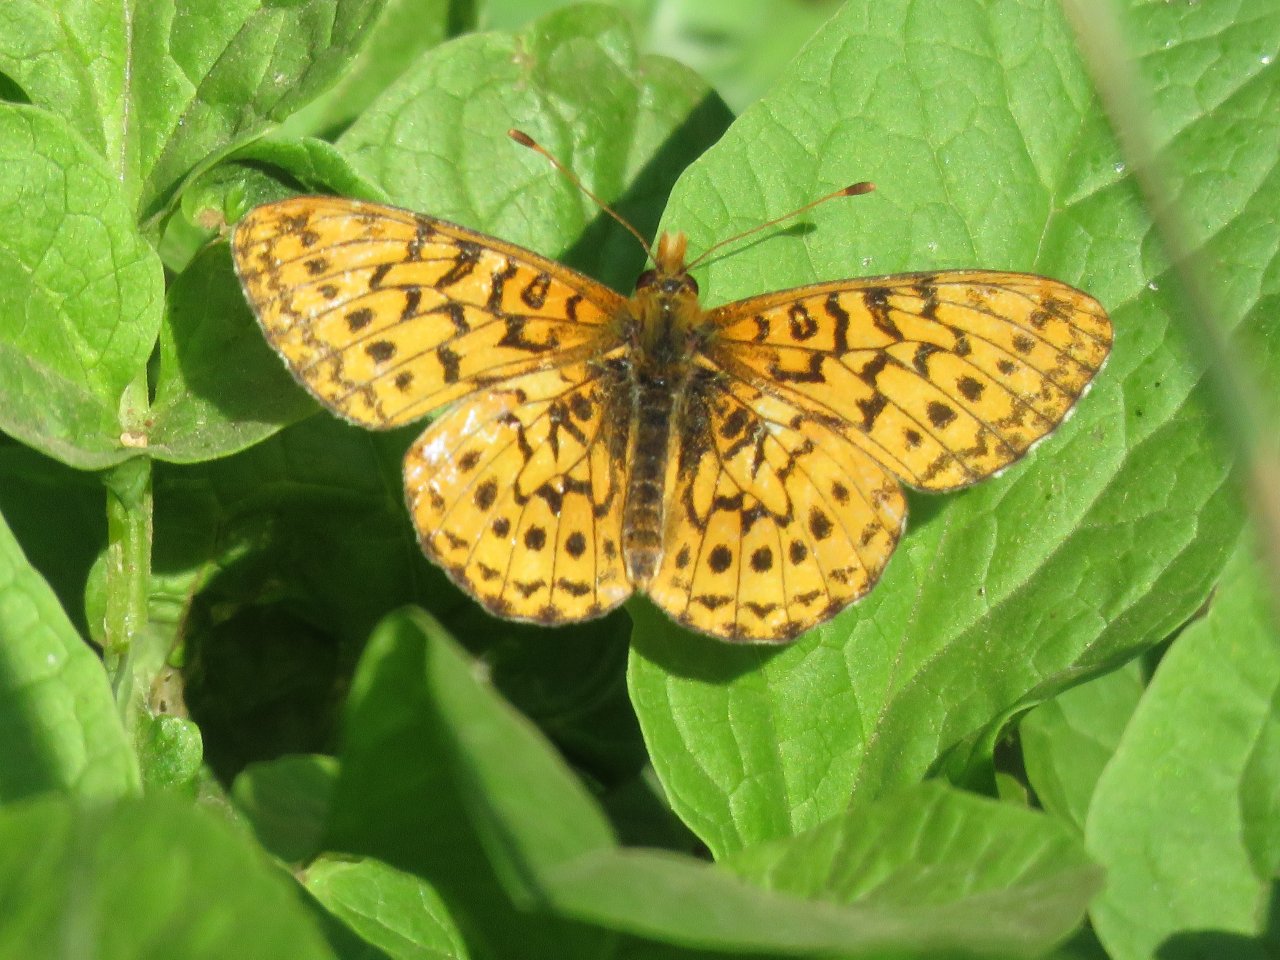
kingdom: Animalia
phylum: Arthropoda
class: Insecta
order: Lepidoptera
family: Nymphalidae
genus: Boloria
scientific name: Boloria kriemhild
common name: Relict Fritillary
